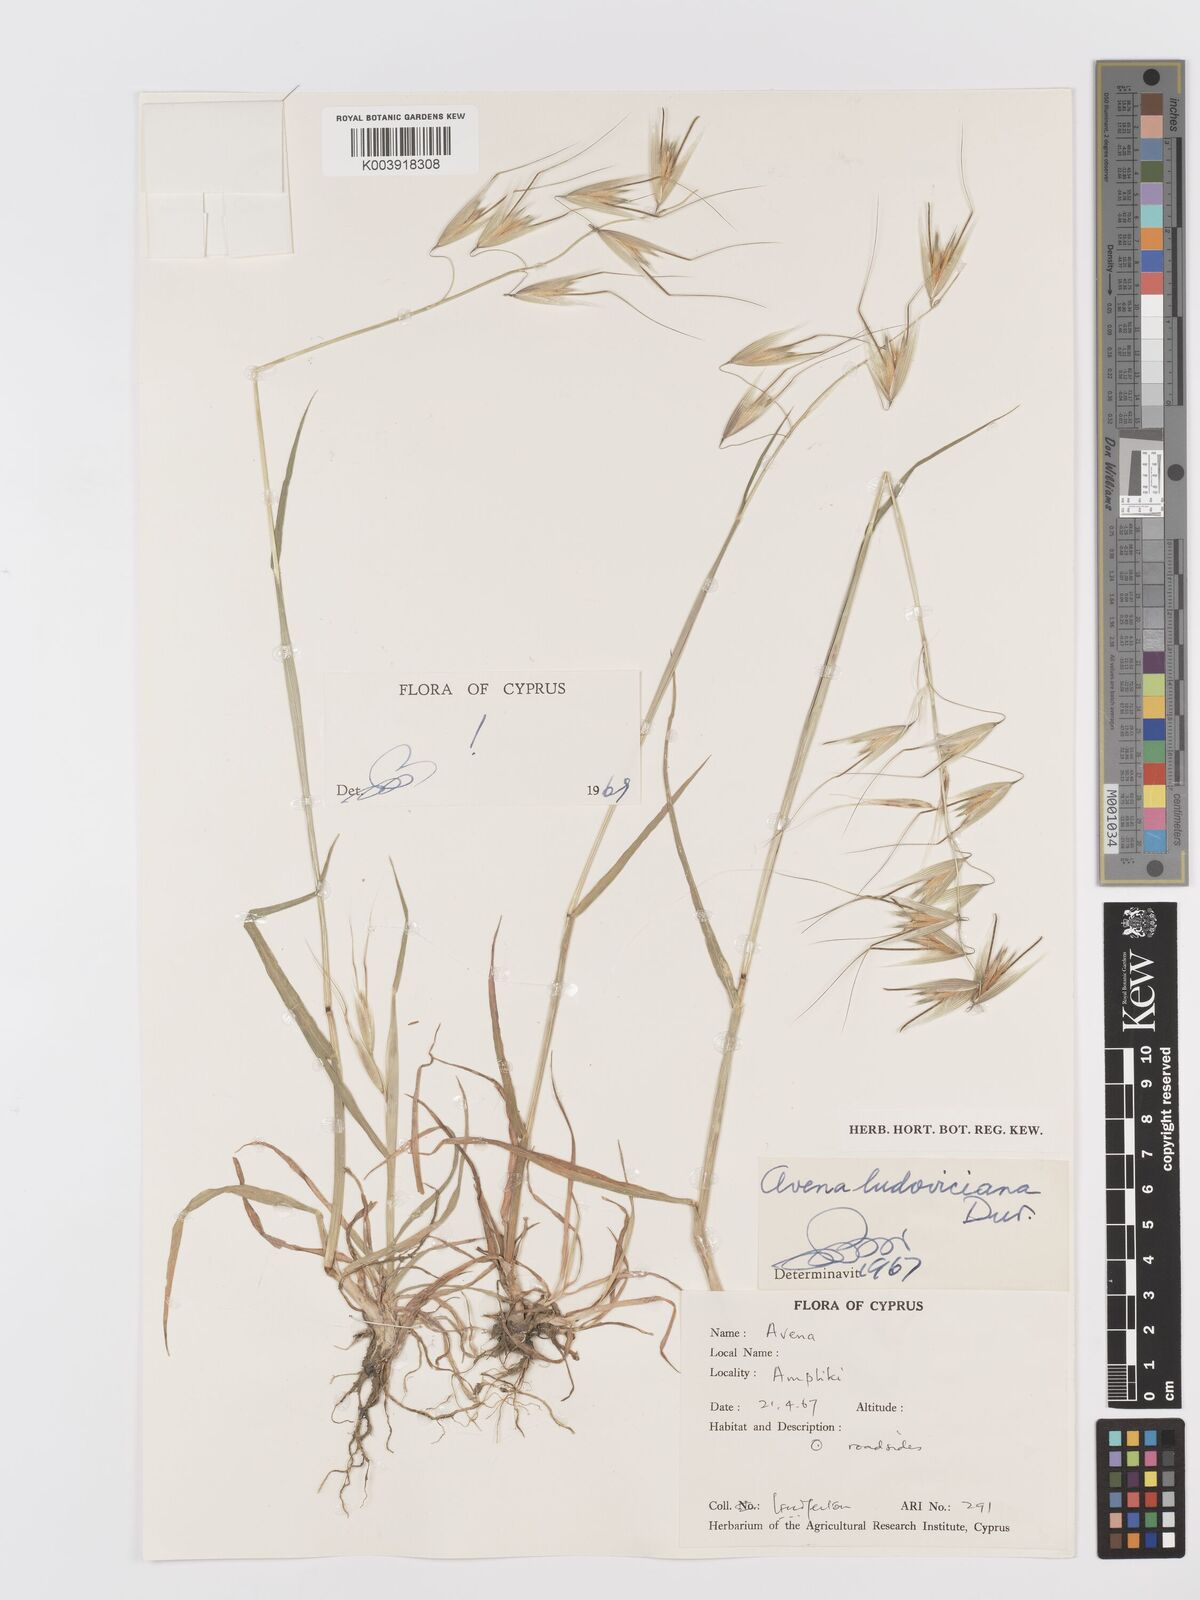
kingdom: Plantae
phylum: Tracheophyta
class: Liliopsida
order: Poales
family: Poaceae
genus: Avena
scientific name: Avena sterilis
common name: Animated oat
